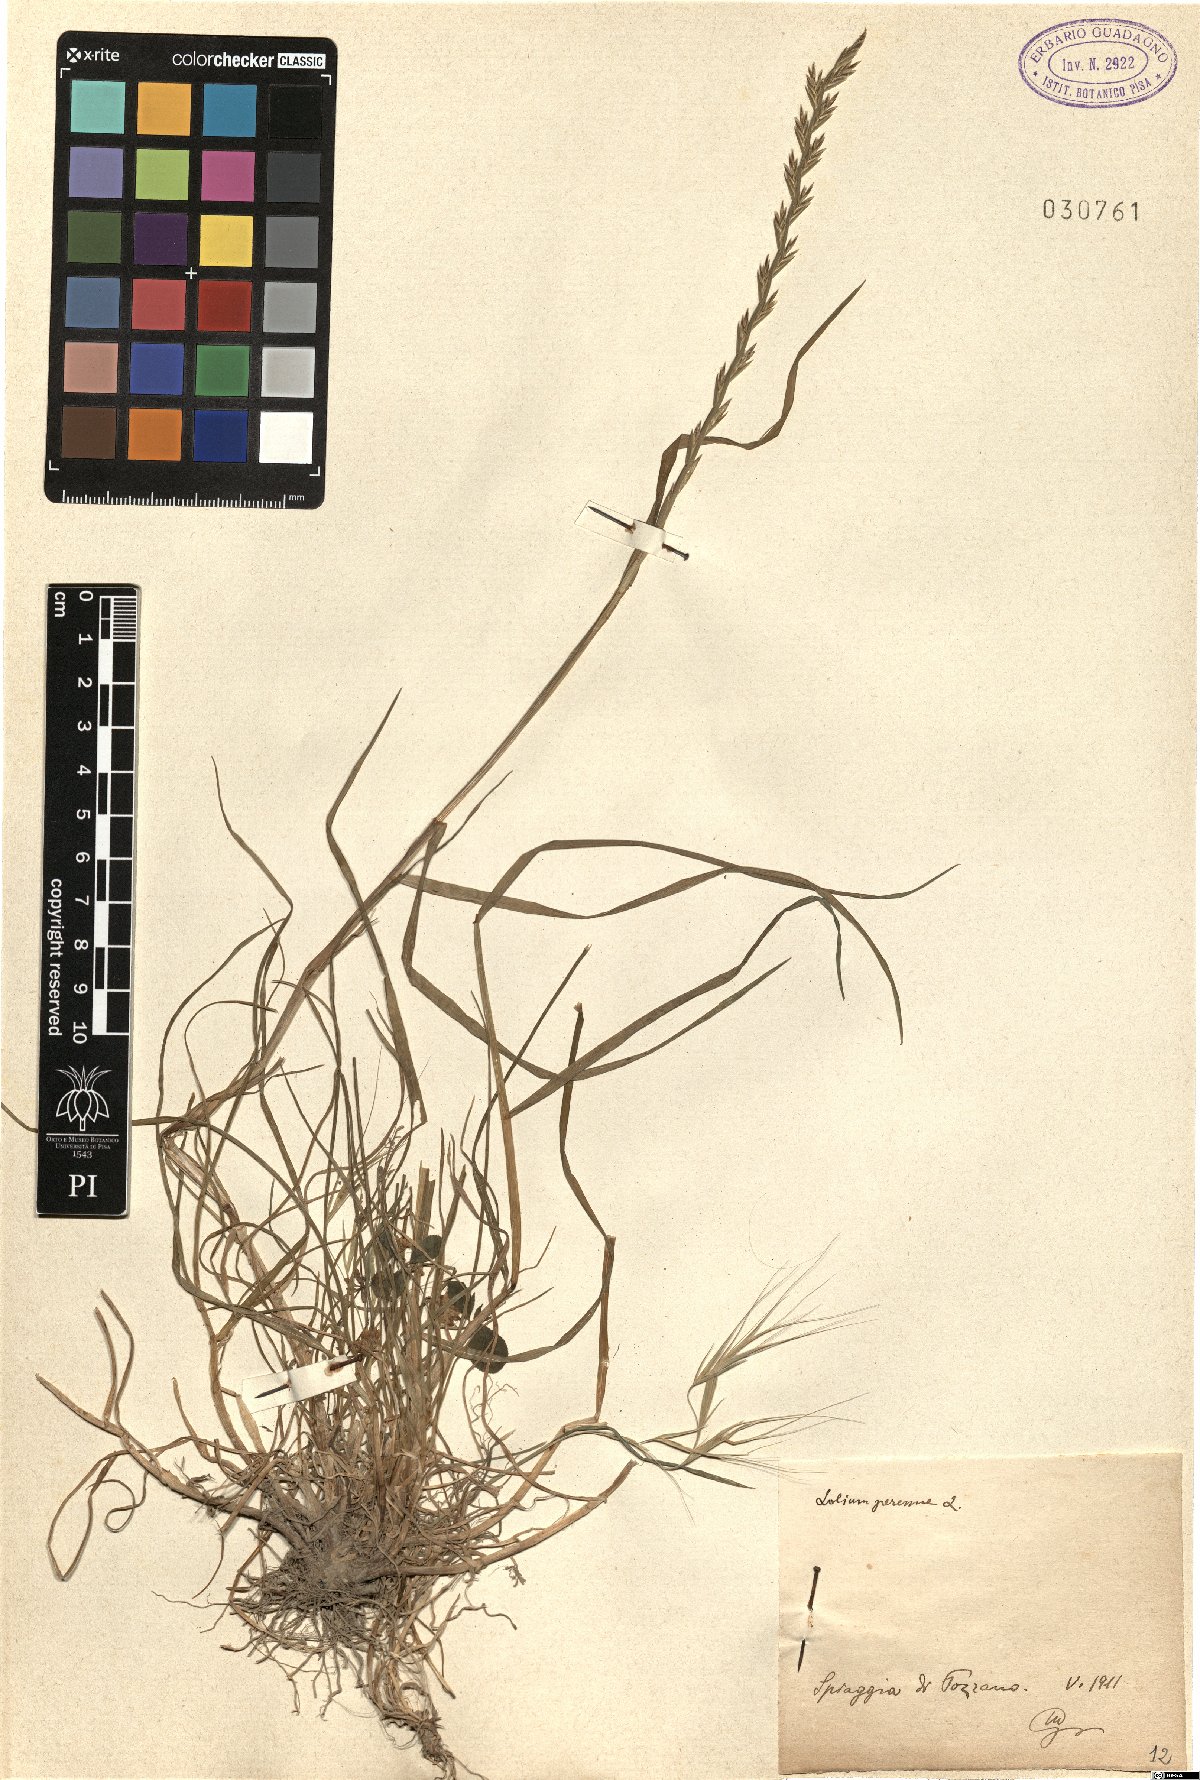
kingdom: Plantae
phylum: Tracheophyta
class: Liliopsida
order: Poales
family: Poaceae
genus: Lolium
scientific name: Lolium perenne
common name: Perennial ryegrass
